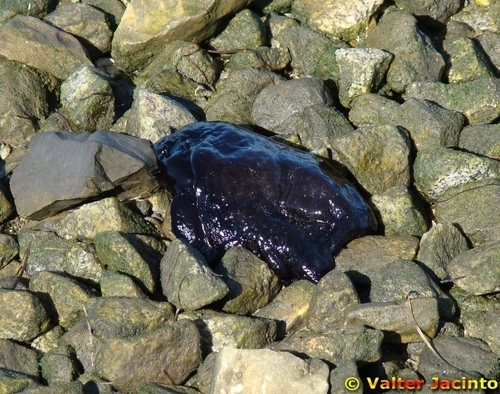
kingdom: Animalia
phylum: Mollusca
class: Gastropoda
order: Aplysiida
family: Aplysiidae
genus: Aplysia
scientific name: Aplysia fasciata
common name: Banded sea hare
